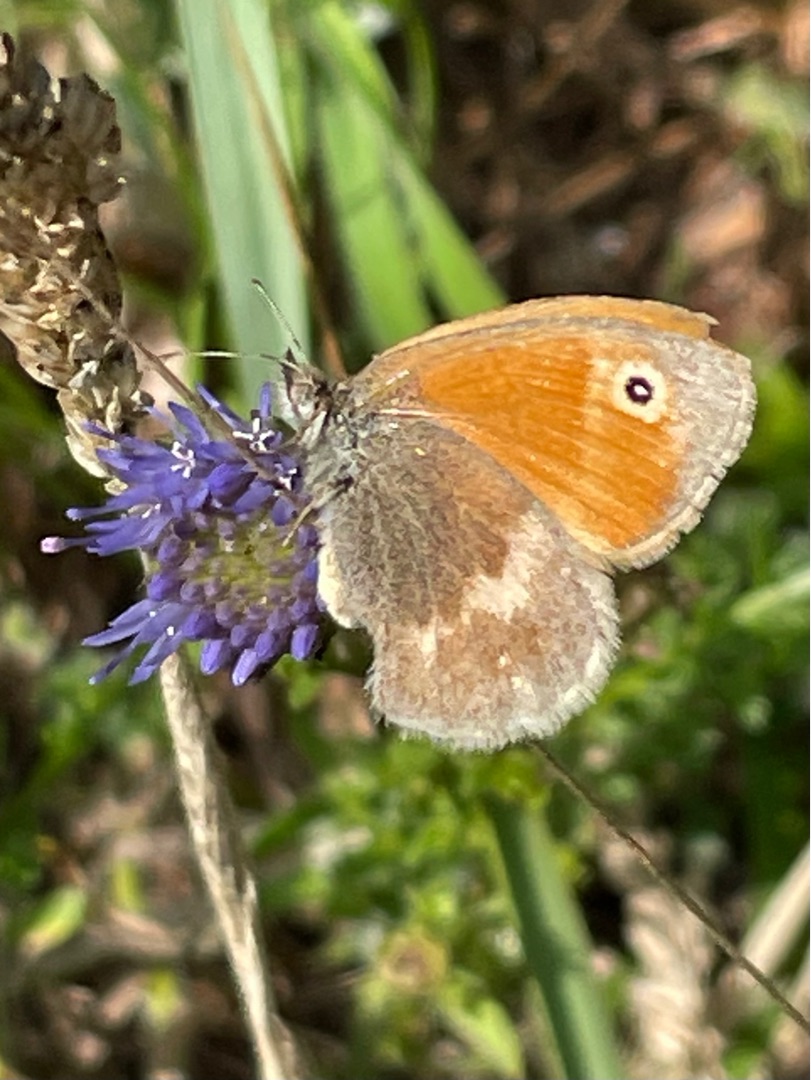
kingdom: Animalia
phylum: Arthropoda
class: Insecta
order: Lepidoptera
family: Nymphalidae
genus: Coenonympha
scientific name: Coenonympha pamphilus
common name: Okkergul randøje
